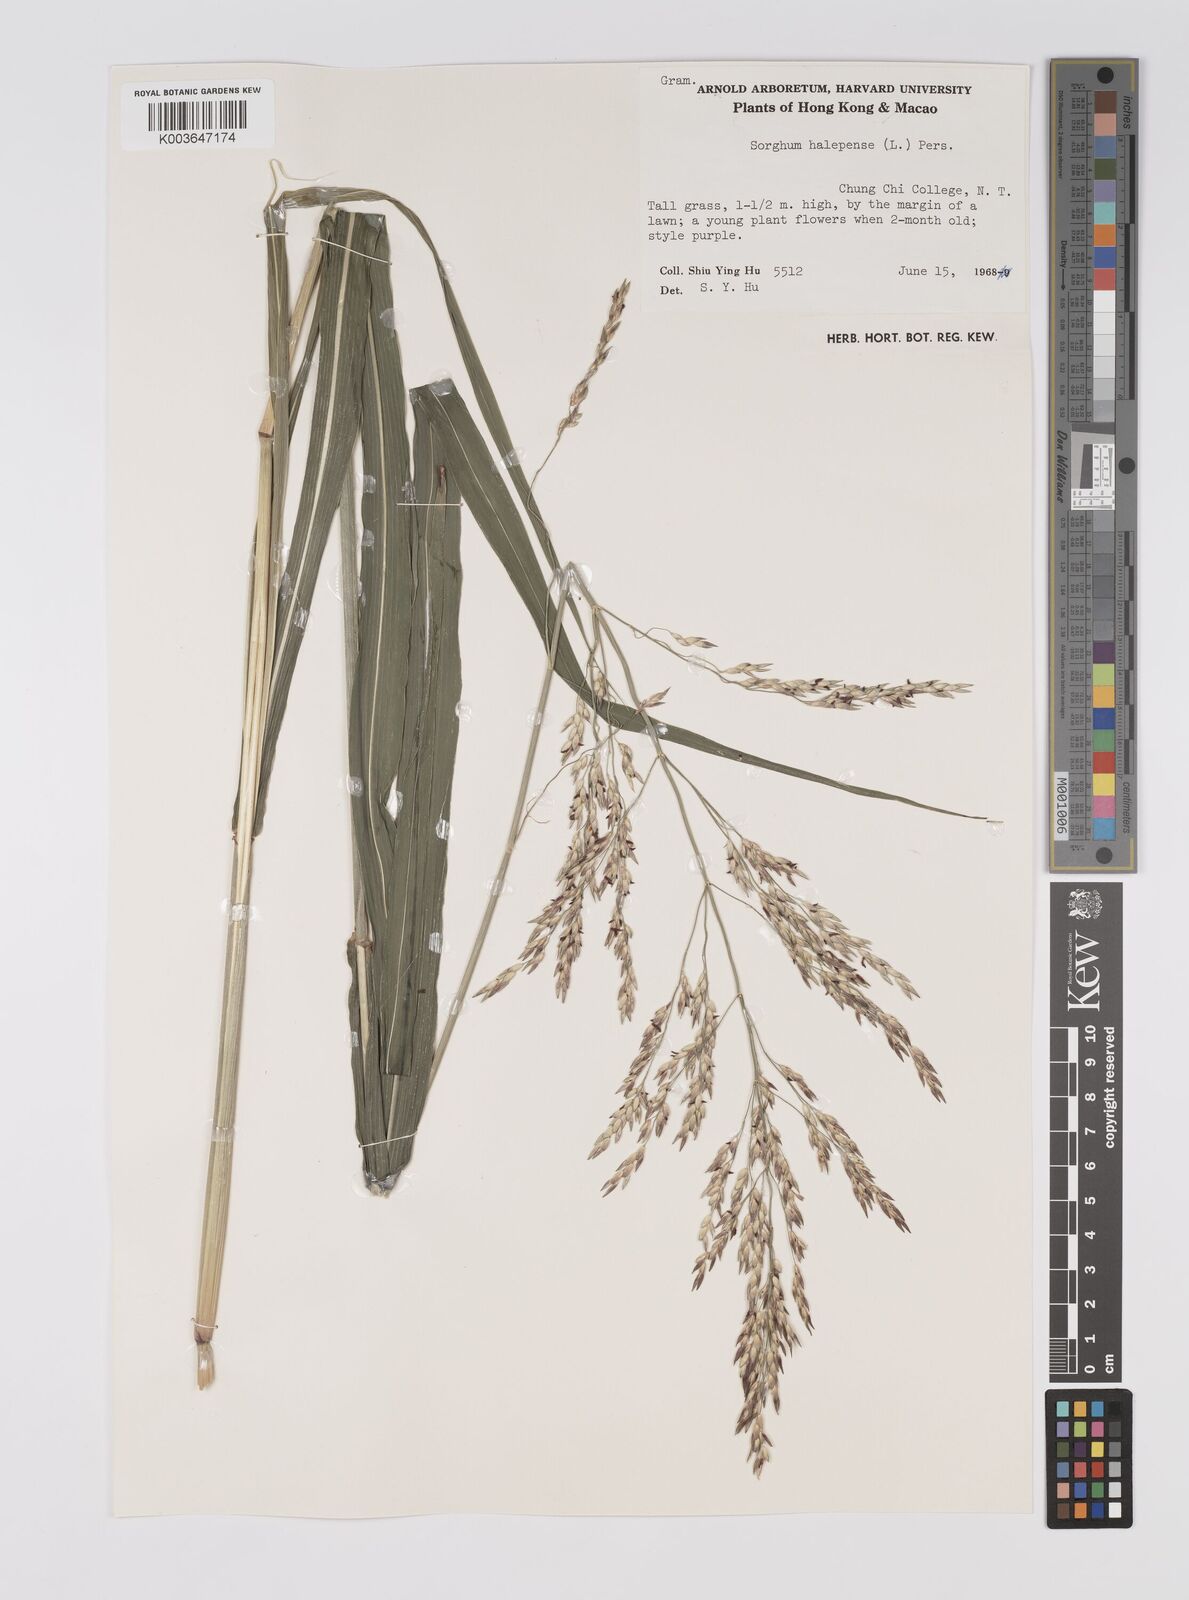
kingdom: Plantae
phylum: Tracheophyta
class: Liliopsida
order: Poales
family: Poaceae
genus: Sorghum
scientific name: Sorghum halepense
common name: Johnson-grass
